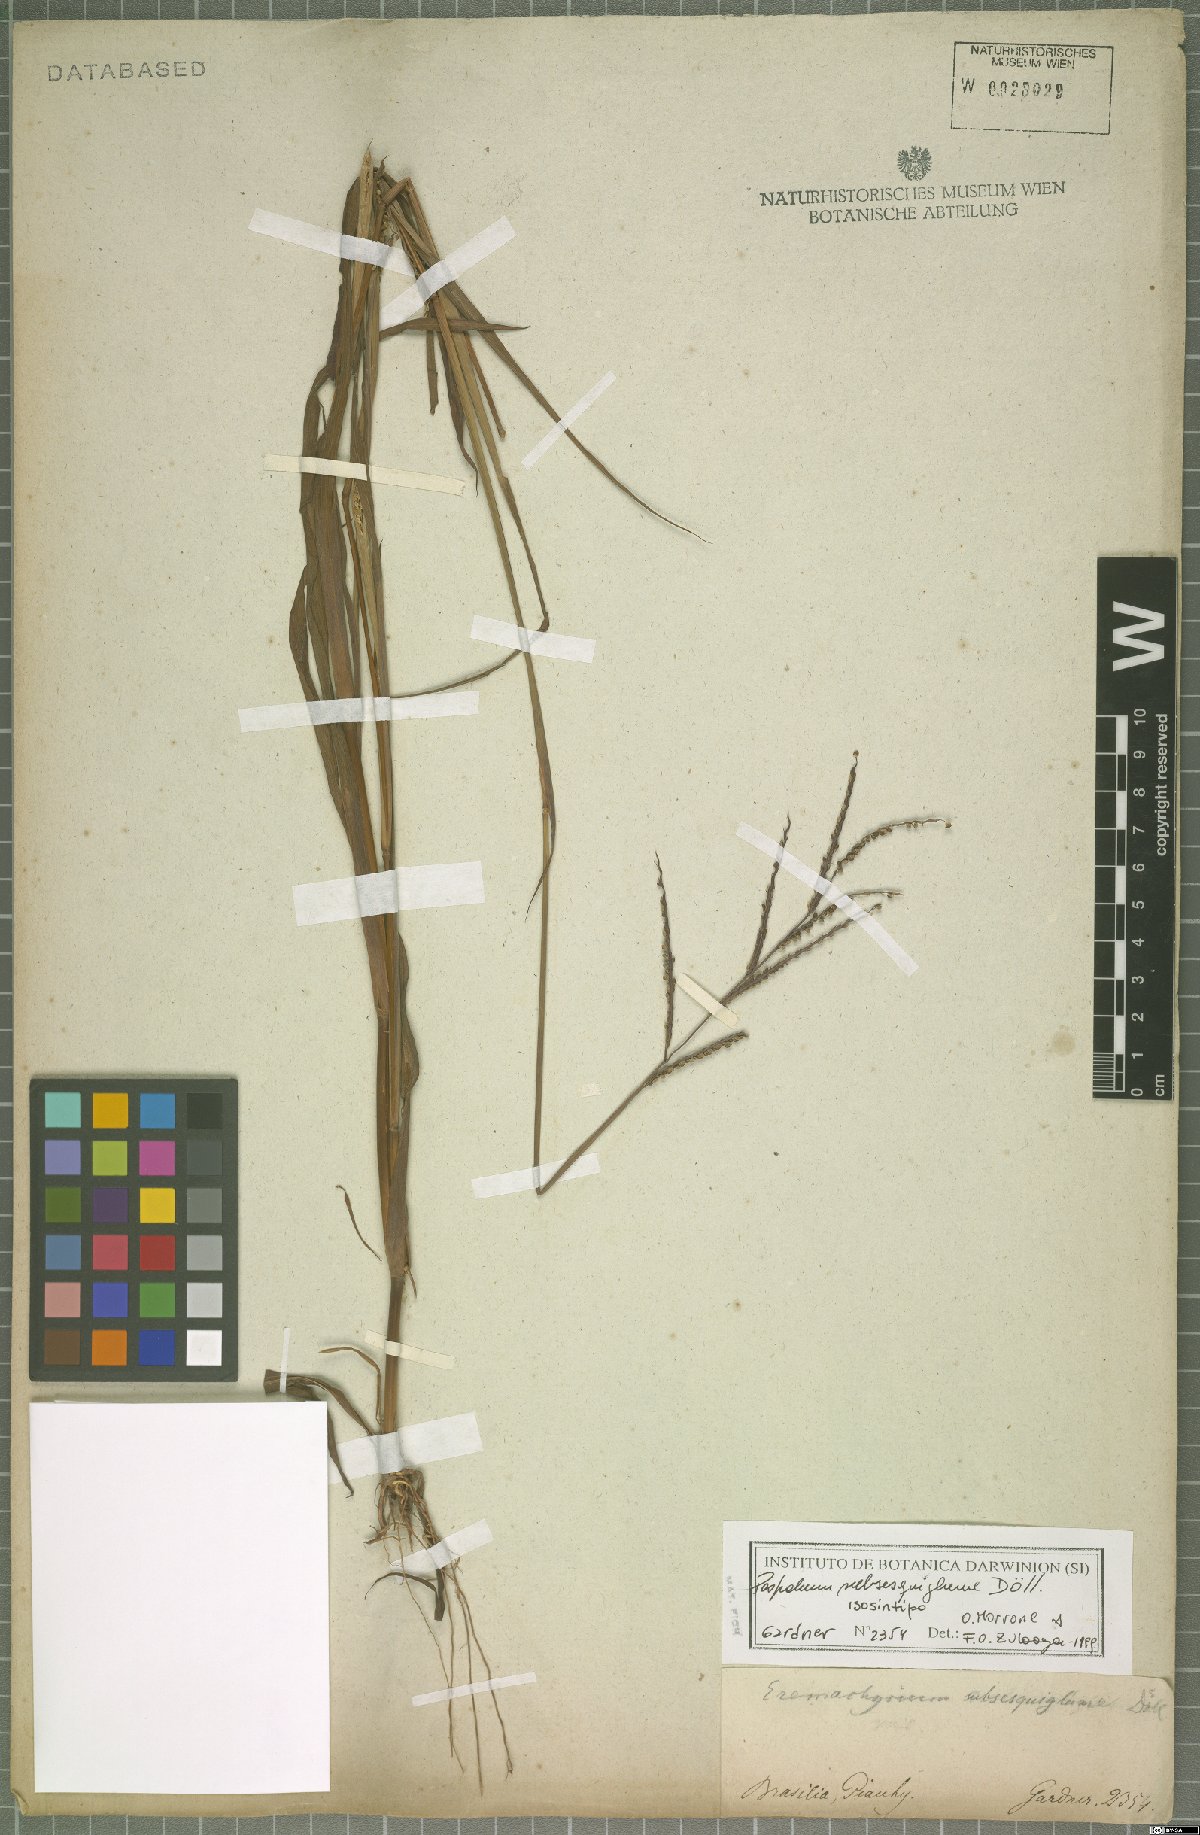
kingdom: Plantae
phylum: Tracheophyta
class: Liliopsida
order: Poales
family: Poaceae
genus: Paspalum
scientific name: Paspalum subsesquiglume
